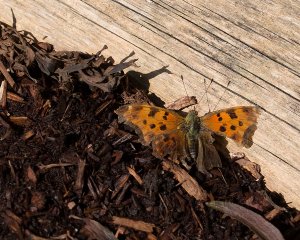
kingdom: Animalia
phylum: Arthropoda
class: Insecta
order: Lepidoptera
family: Nymphalidae
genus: Polygonia
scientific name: Polygonia comma
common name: Eastern Comma
